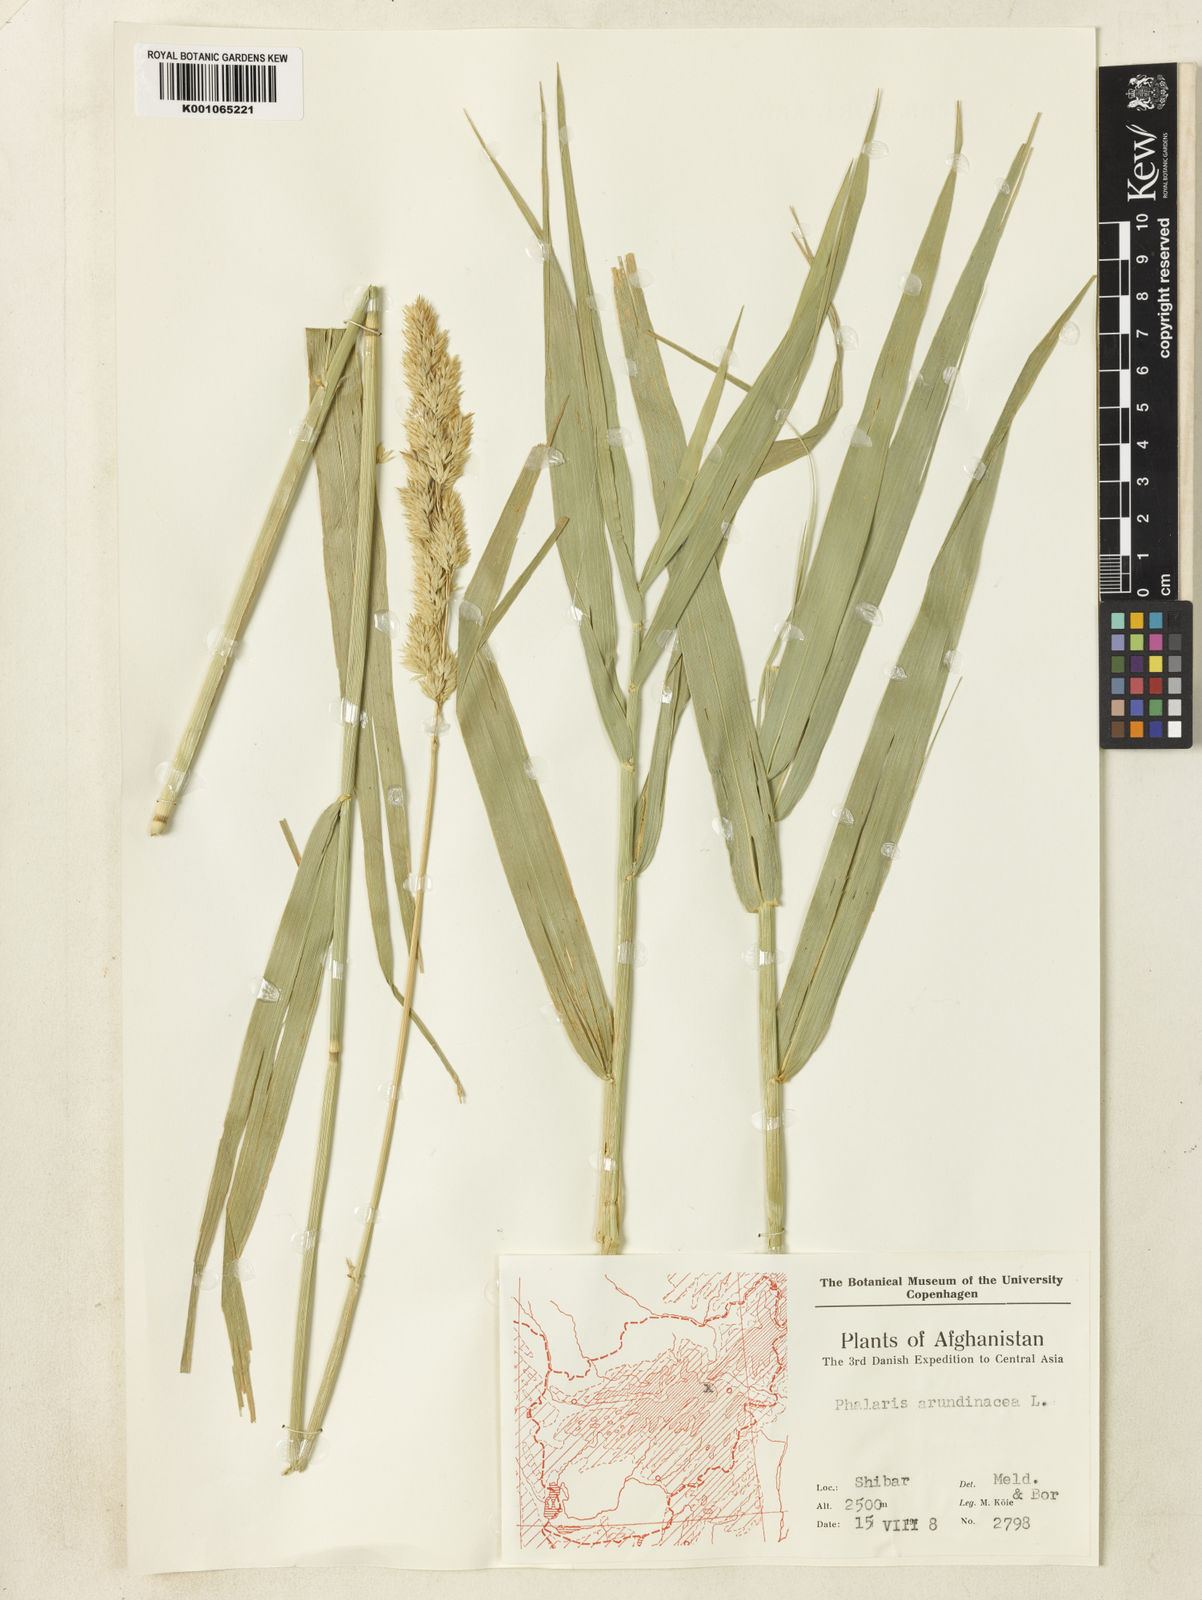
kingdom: Plantae
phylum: Tracheophyta
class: Liliopsida
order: Poales
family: Poaceae
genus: Phalaris
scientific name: Phalaris arundinacea
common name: Reed canary-grass
